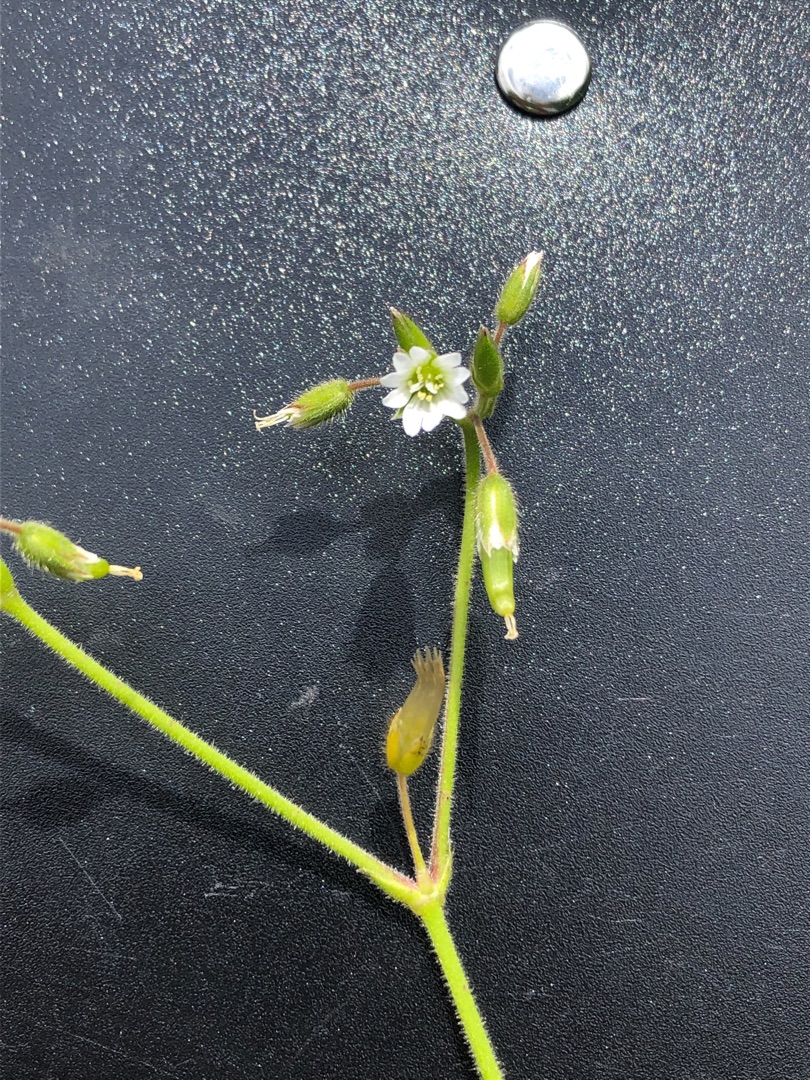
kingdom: Plantae
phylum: Tracheophyta
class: Magnoliopsida
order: Caryophyllales
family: Caryophyllaceae
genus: Cerastium
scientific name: Cerastium fontanum
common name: Almindelig hønsetarm
